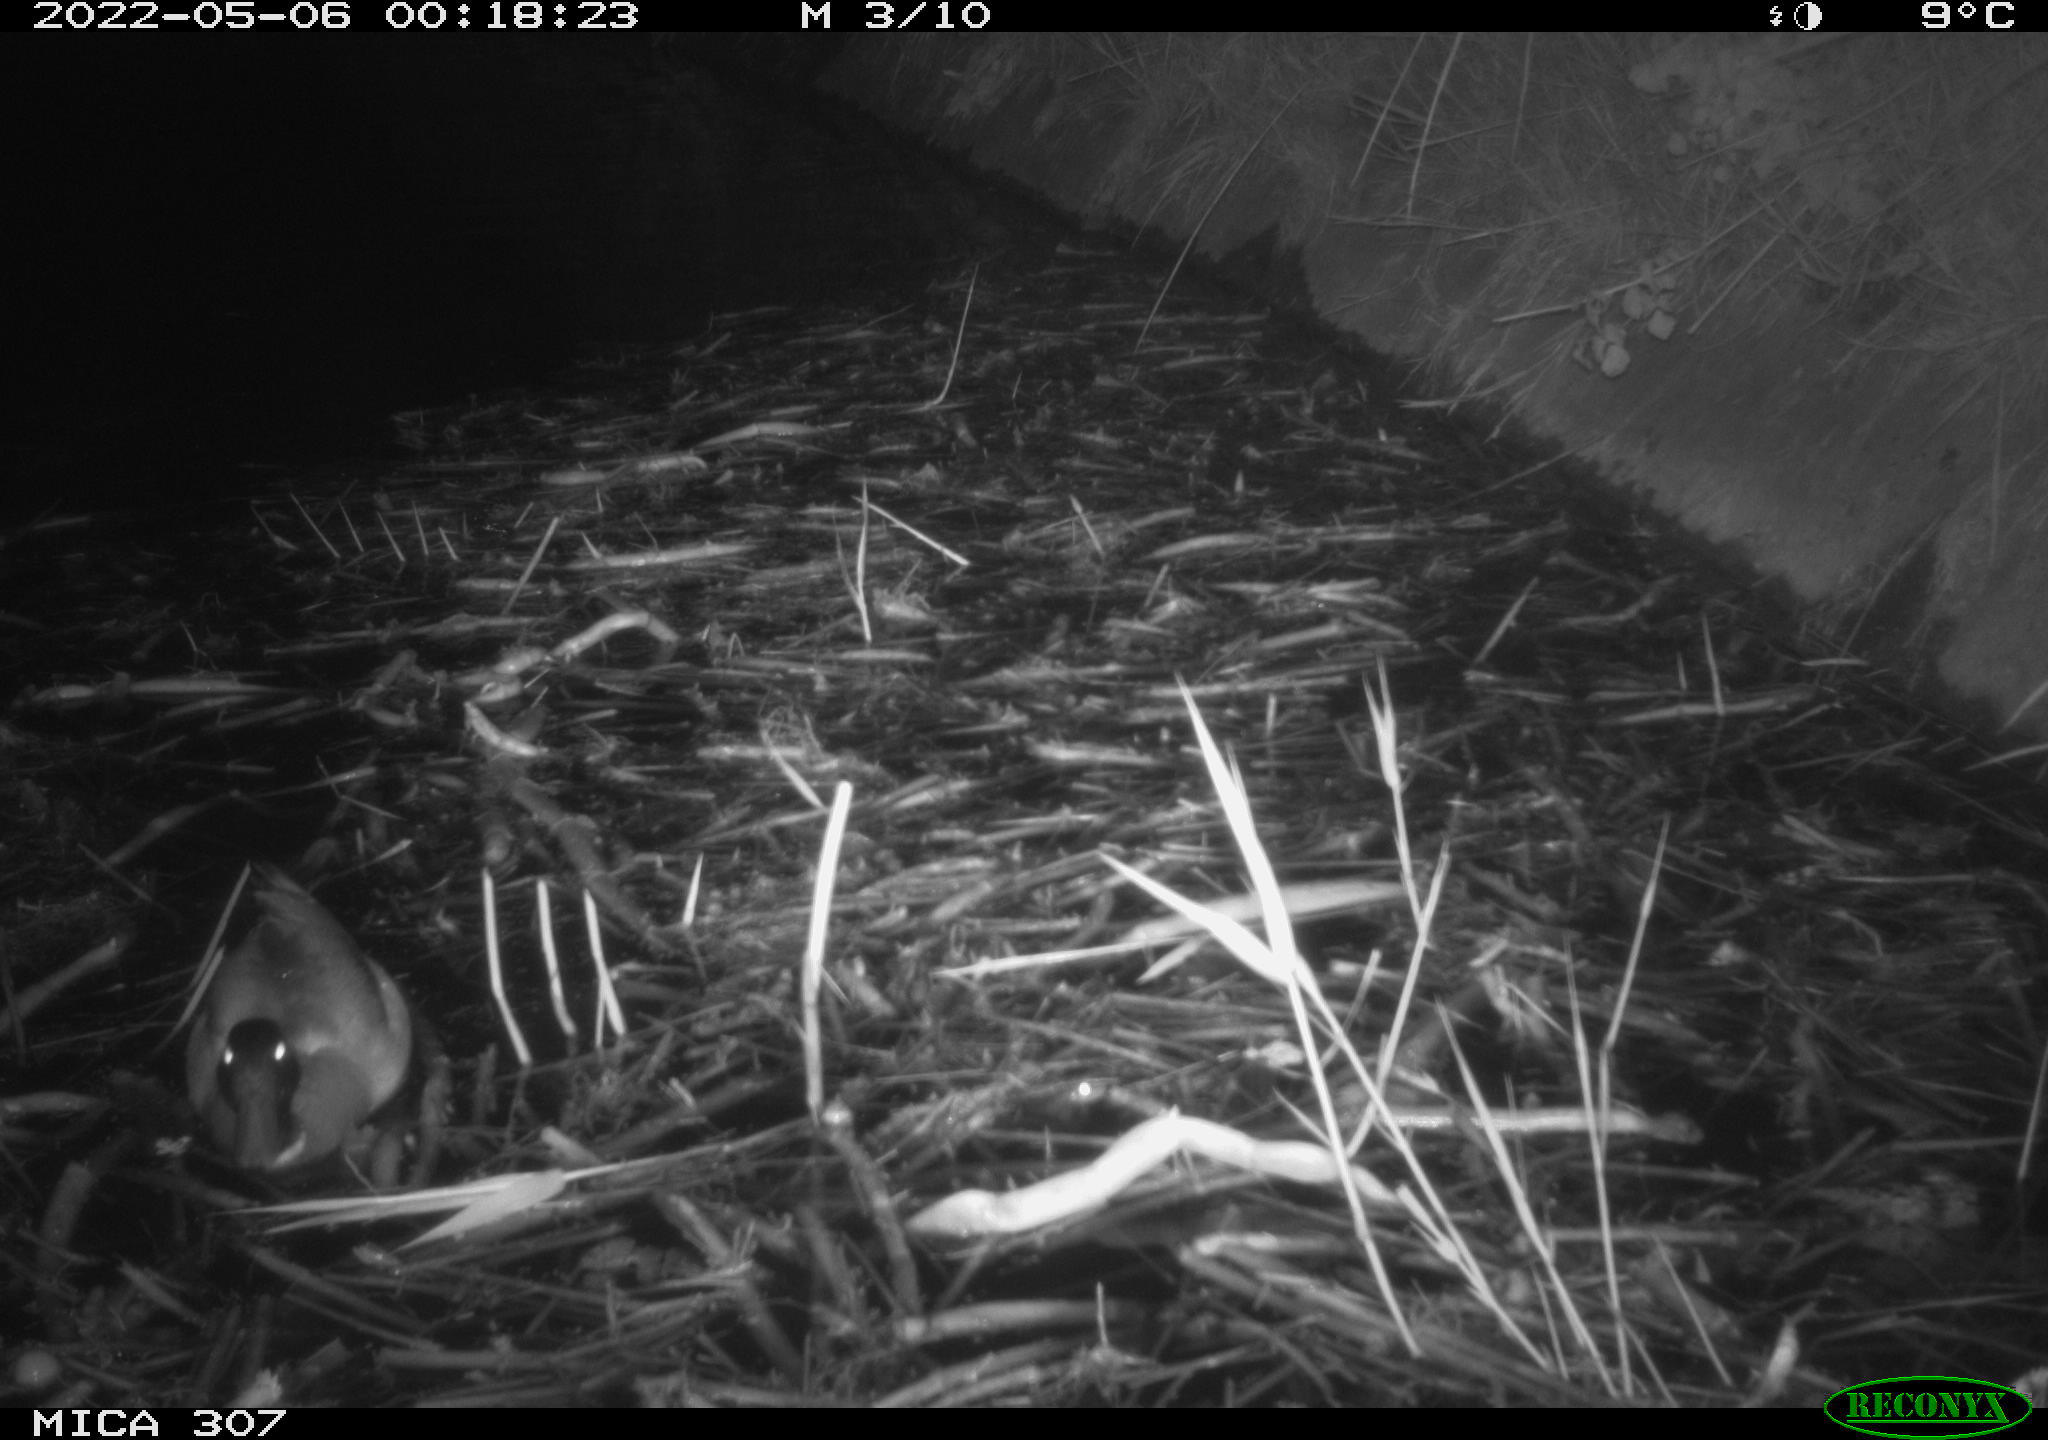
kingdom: Animalia
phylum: Chordata
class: Aves
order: Anseriformes
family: Anatidae
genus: Anas
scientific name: Anas platyrhynchos
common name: Mallard
